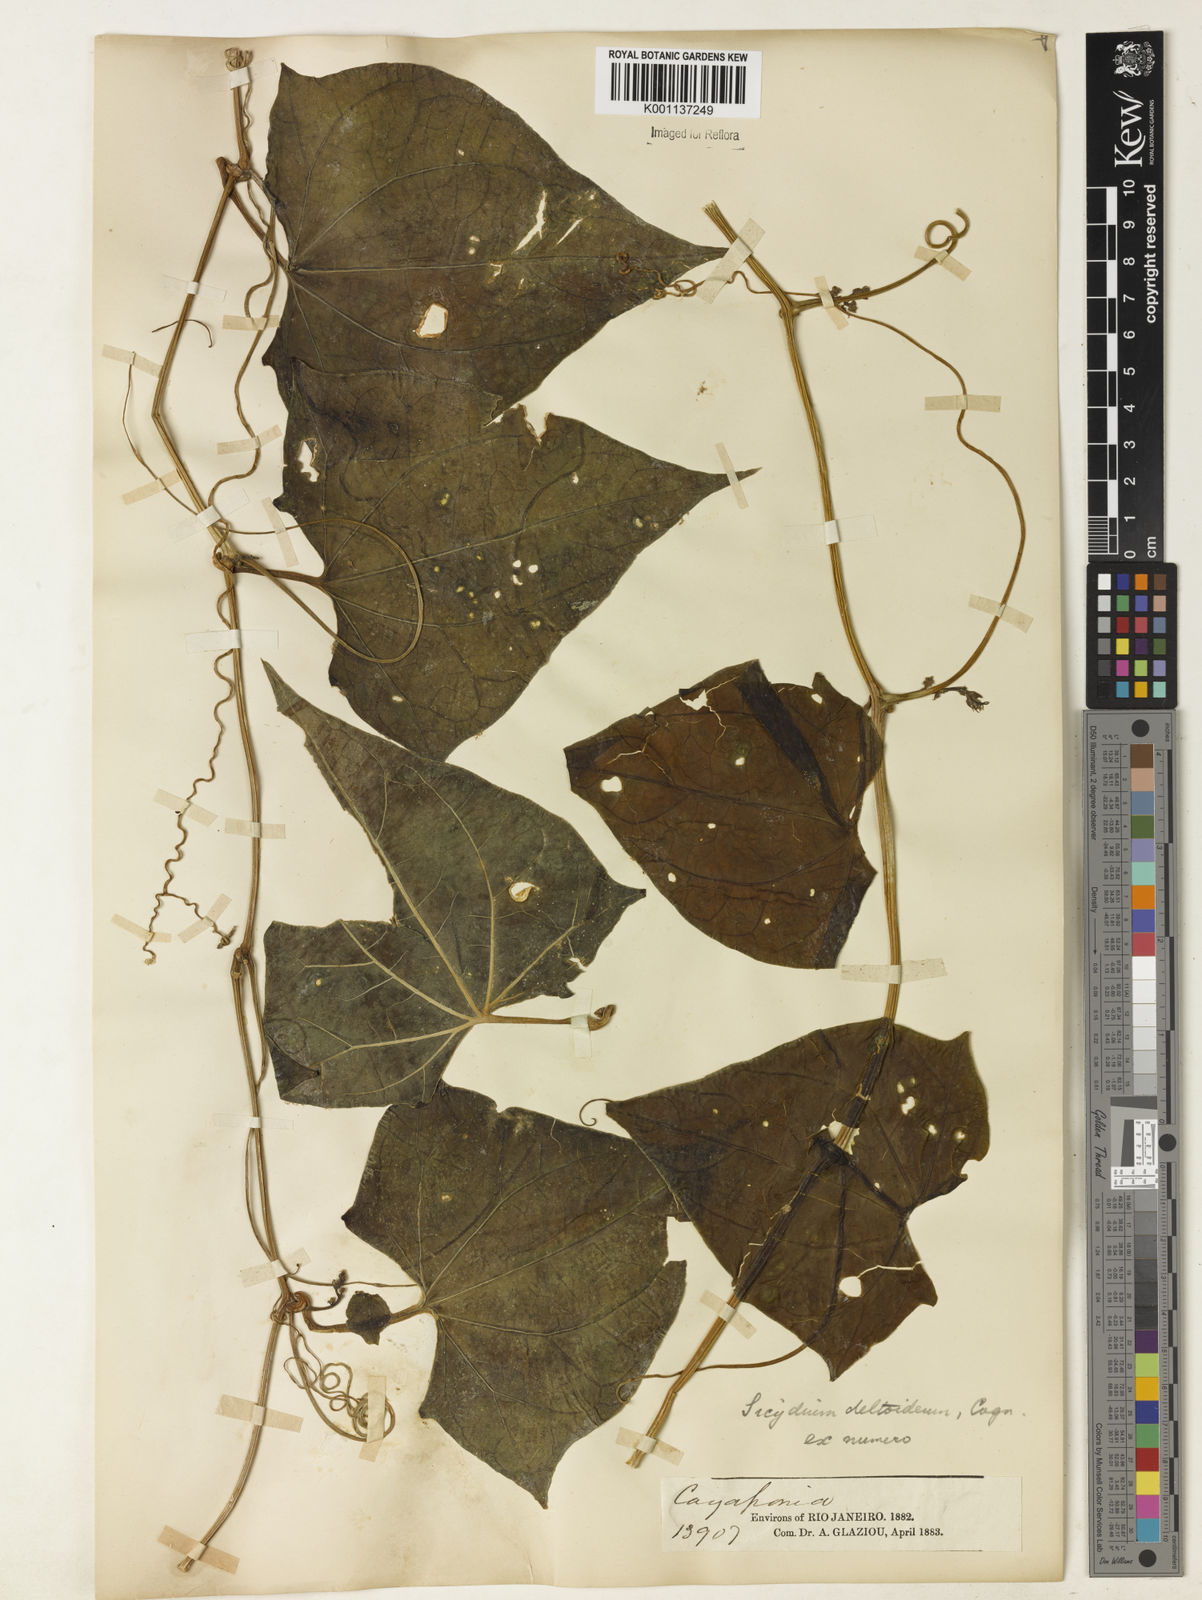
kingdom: Plantae
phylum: Tracheophyta
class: Magnoliopsida
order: Cucurbitales
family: Cucurbitaceae
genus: Pteropepon
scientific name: Pteropepon deltoideus
